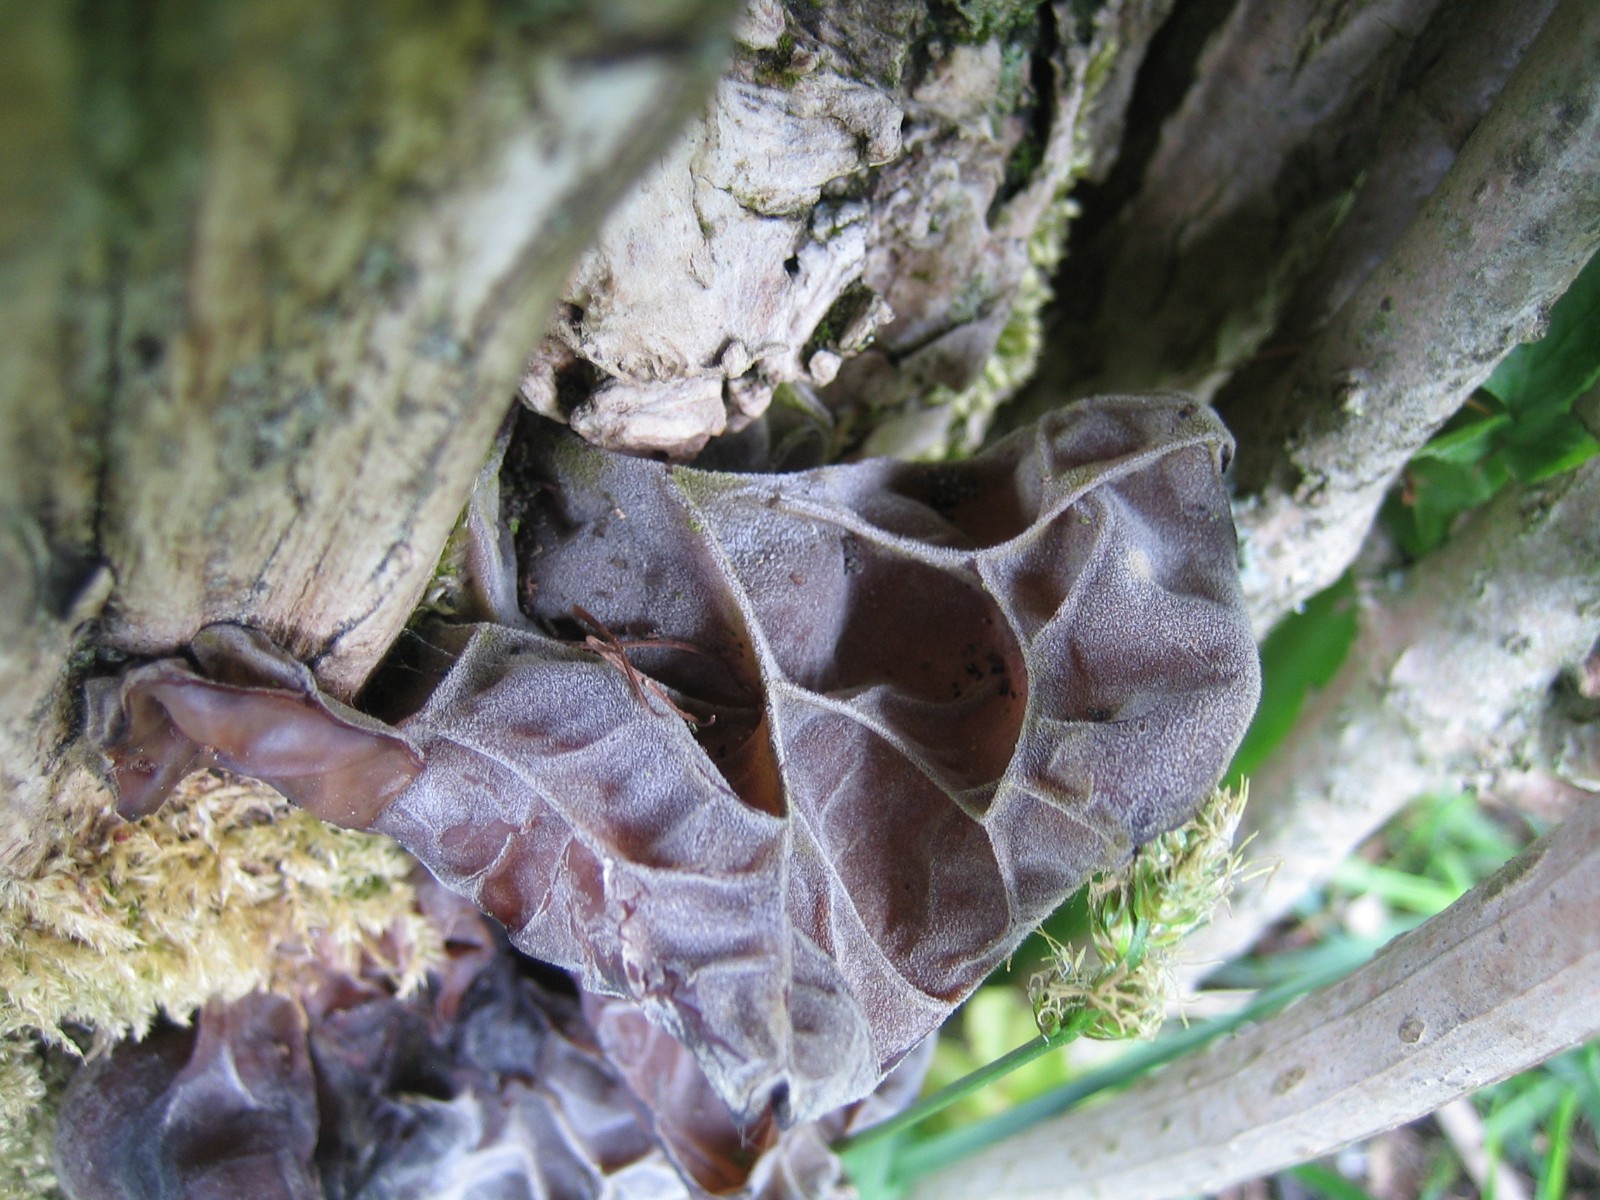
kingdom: Fungi
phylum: Basidiomycota
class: Agaricomycetes
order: Auriculariales
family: Auriculariaceae
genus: Auricularia
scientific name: Auricularia auricula-judae
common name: almindelig judasøre
